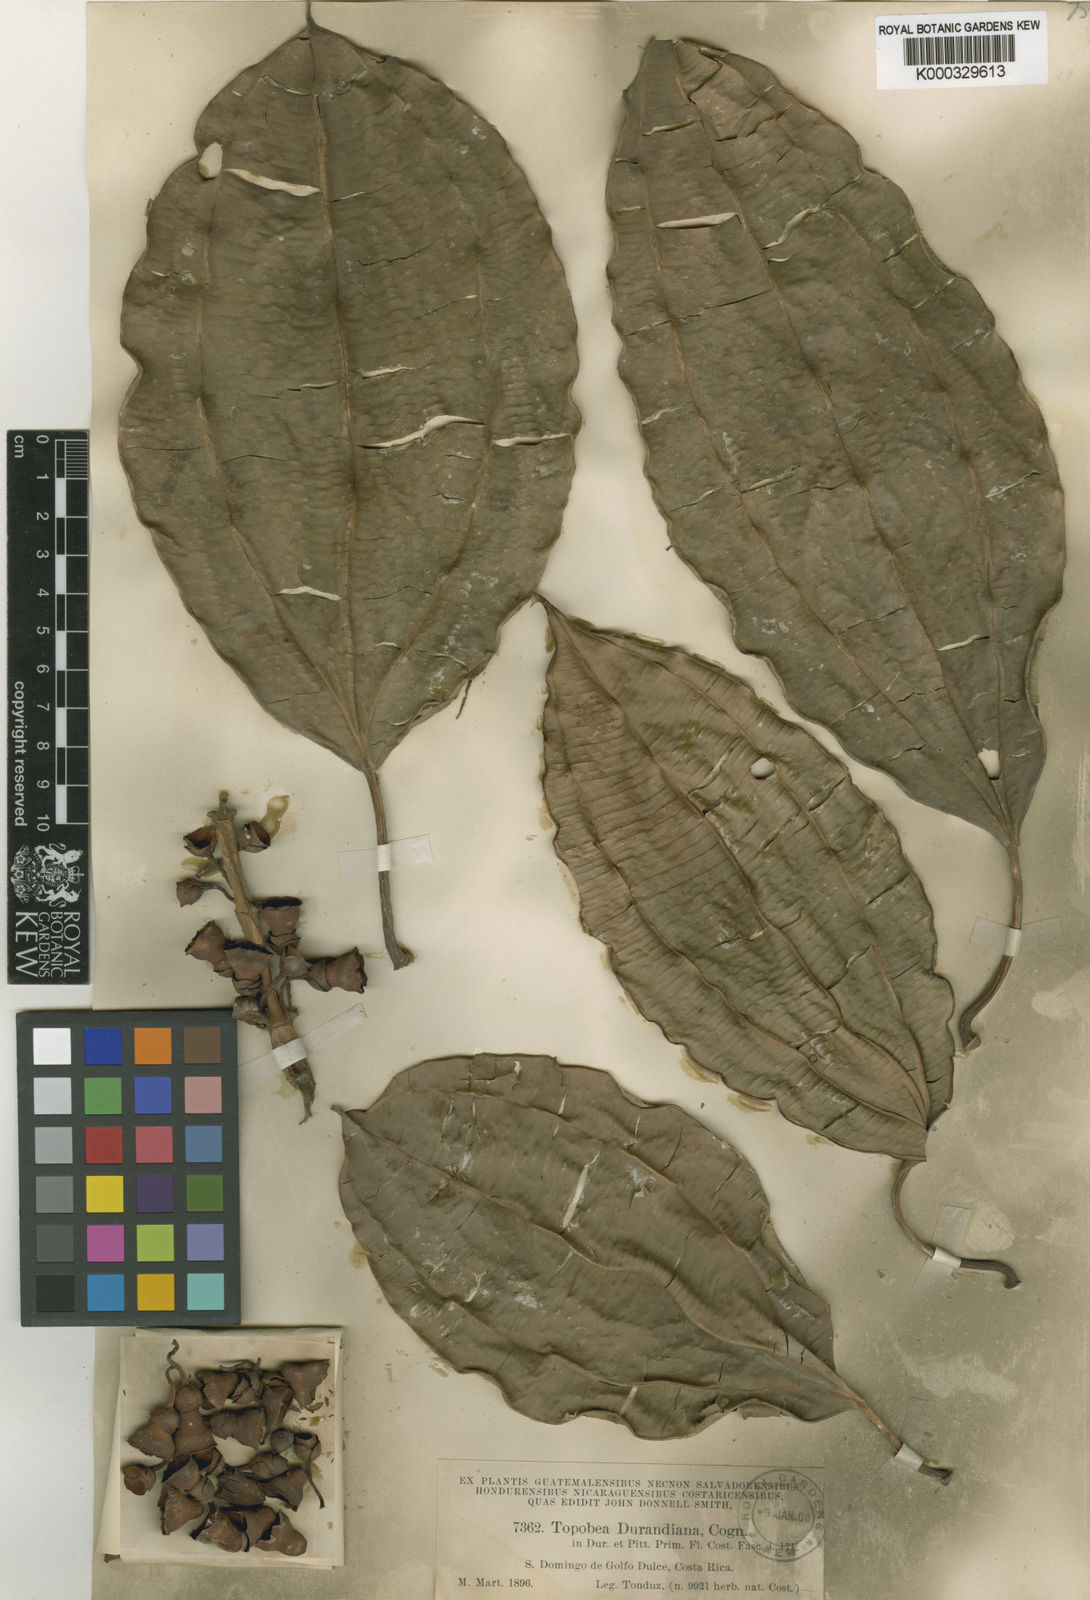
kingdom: Plantae
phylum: Tracheophyta
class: Magnoliopsida
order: Myrtales
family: Melastomataceae
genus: Blakea
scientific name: Blakea
